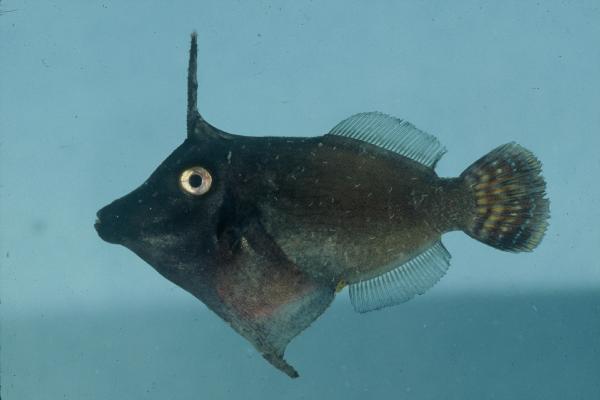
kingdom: Animalia
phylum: Chordata
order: Tetraodontiformes
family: Monacanthidae
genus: Pervagor
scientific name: Pervagor janthinosoma
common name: Blackbar filefish
